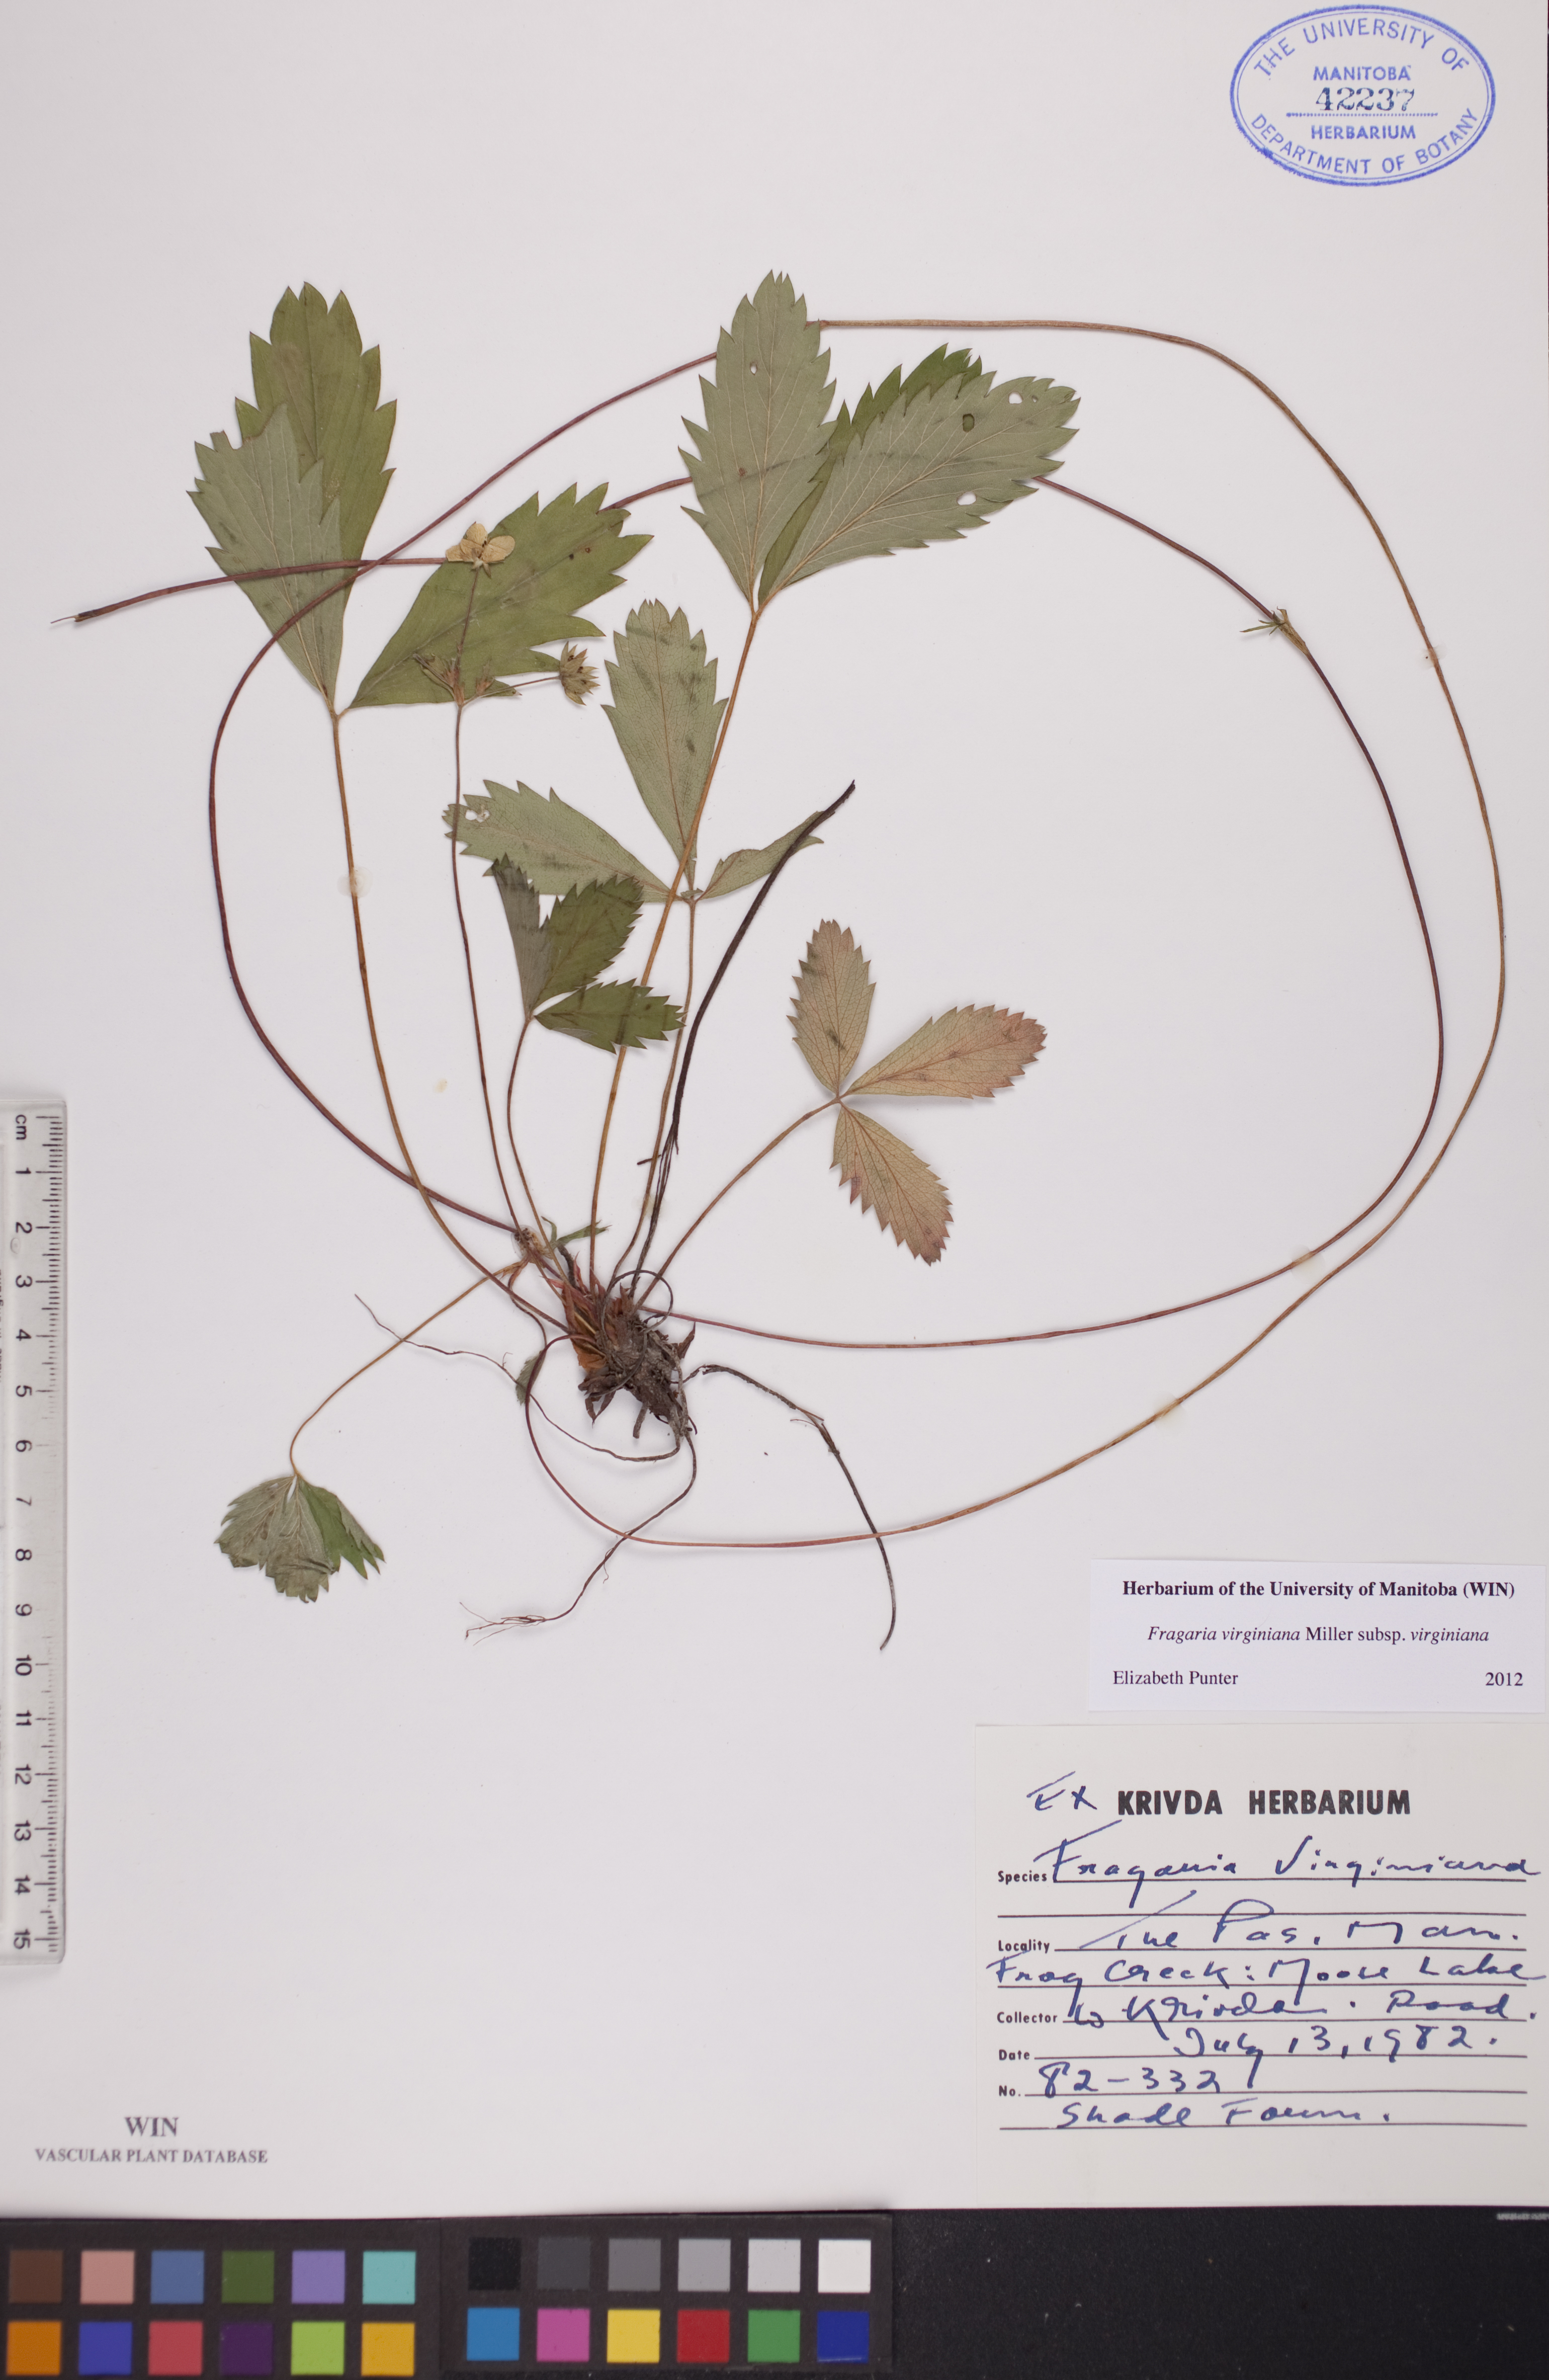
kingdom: Plantae
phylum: Tracheophyta
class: Magnoliopsida
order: Rosales
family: Rosaceae
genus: Fragaria
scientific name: Fragaria virginiana
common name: Thickleaved wild strawberry
